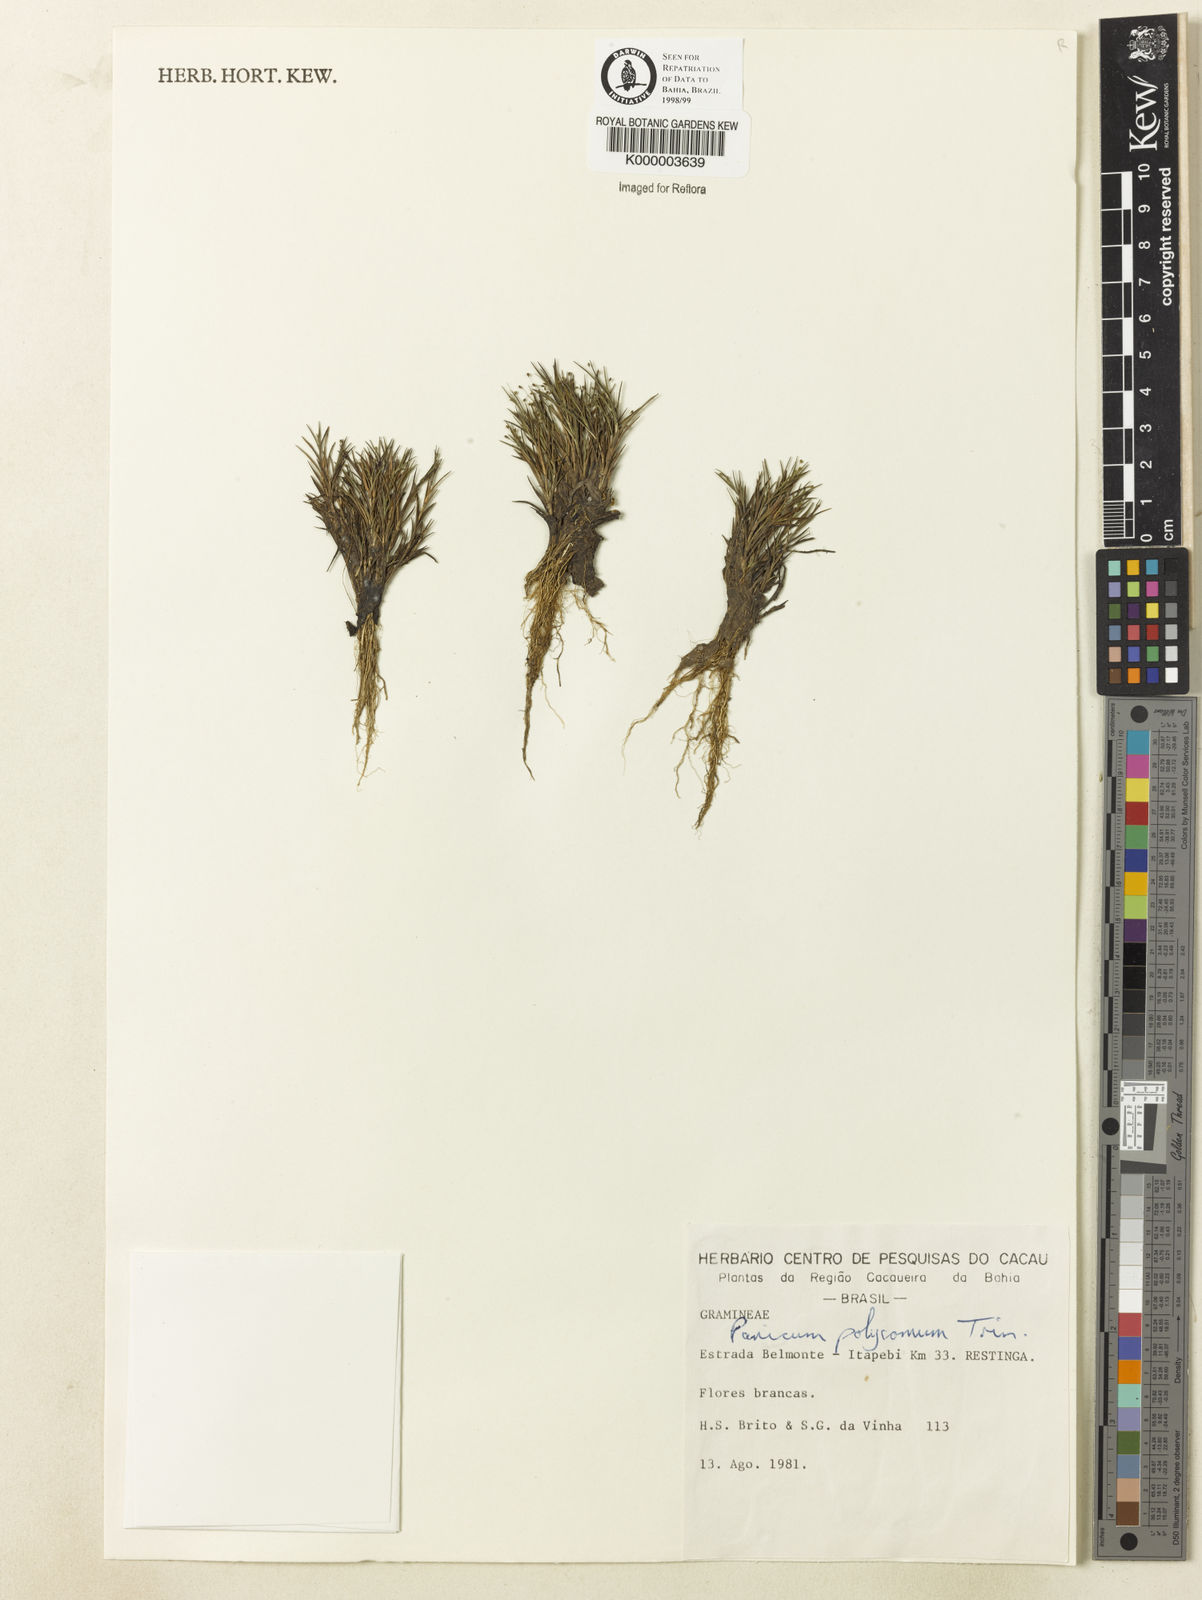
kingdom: Plantae
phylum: Tracheophyta
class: Liliopsida
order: Poales
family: Poaceae
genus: Trichanthecium
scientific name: Trichanthecium polycomum
